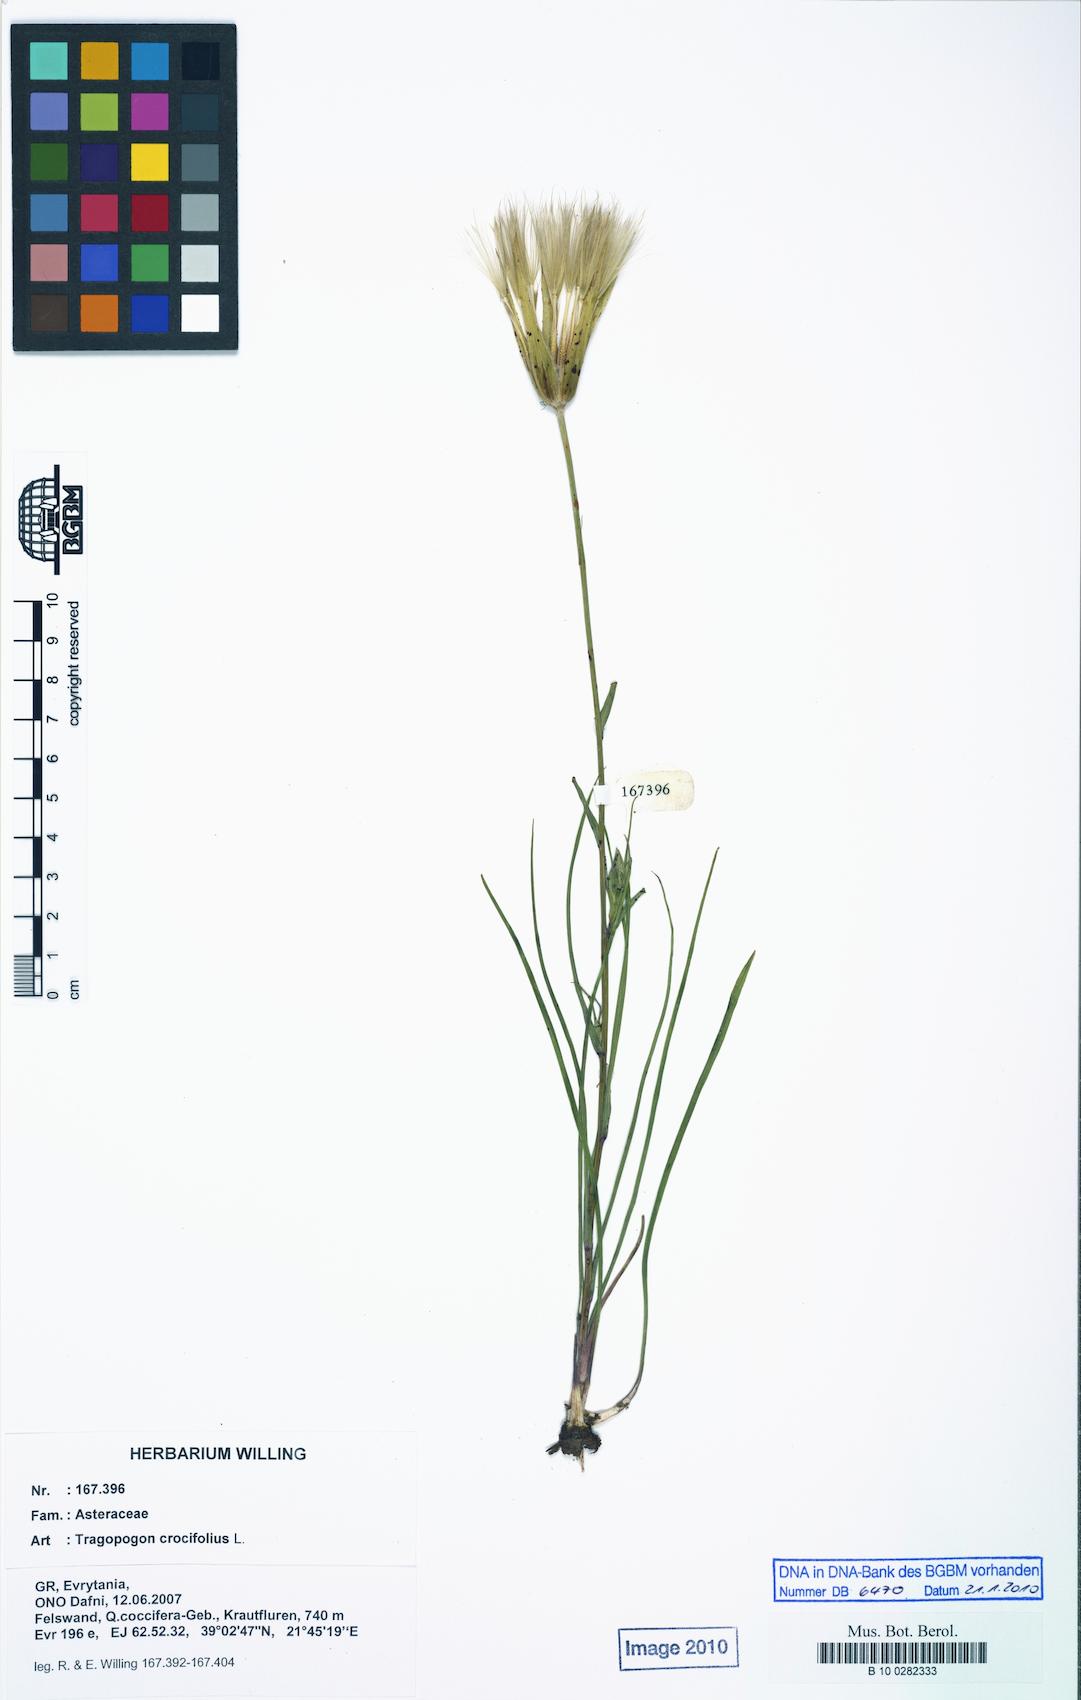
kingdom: Plantae
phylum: Tracheophyta
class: Magnoliopsida
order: Asterales
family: Asteraceae
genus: Tragopogon
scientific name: Tragopogon crocifolius
